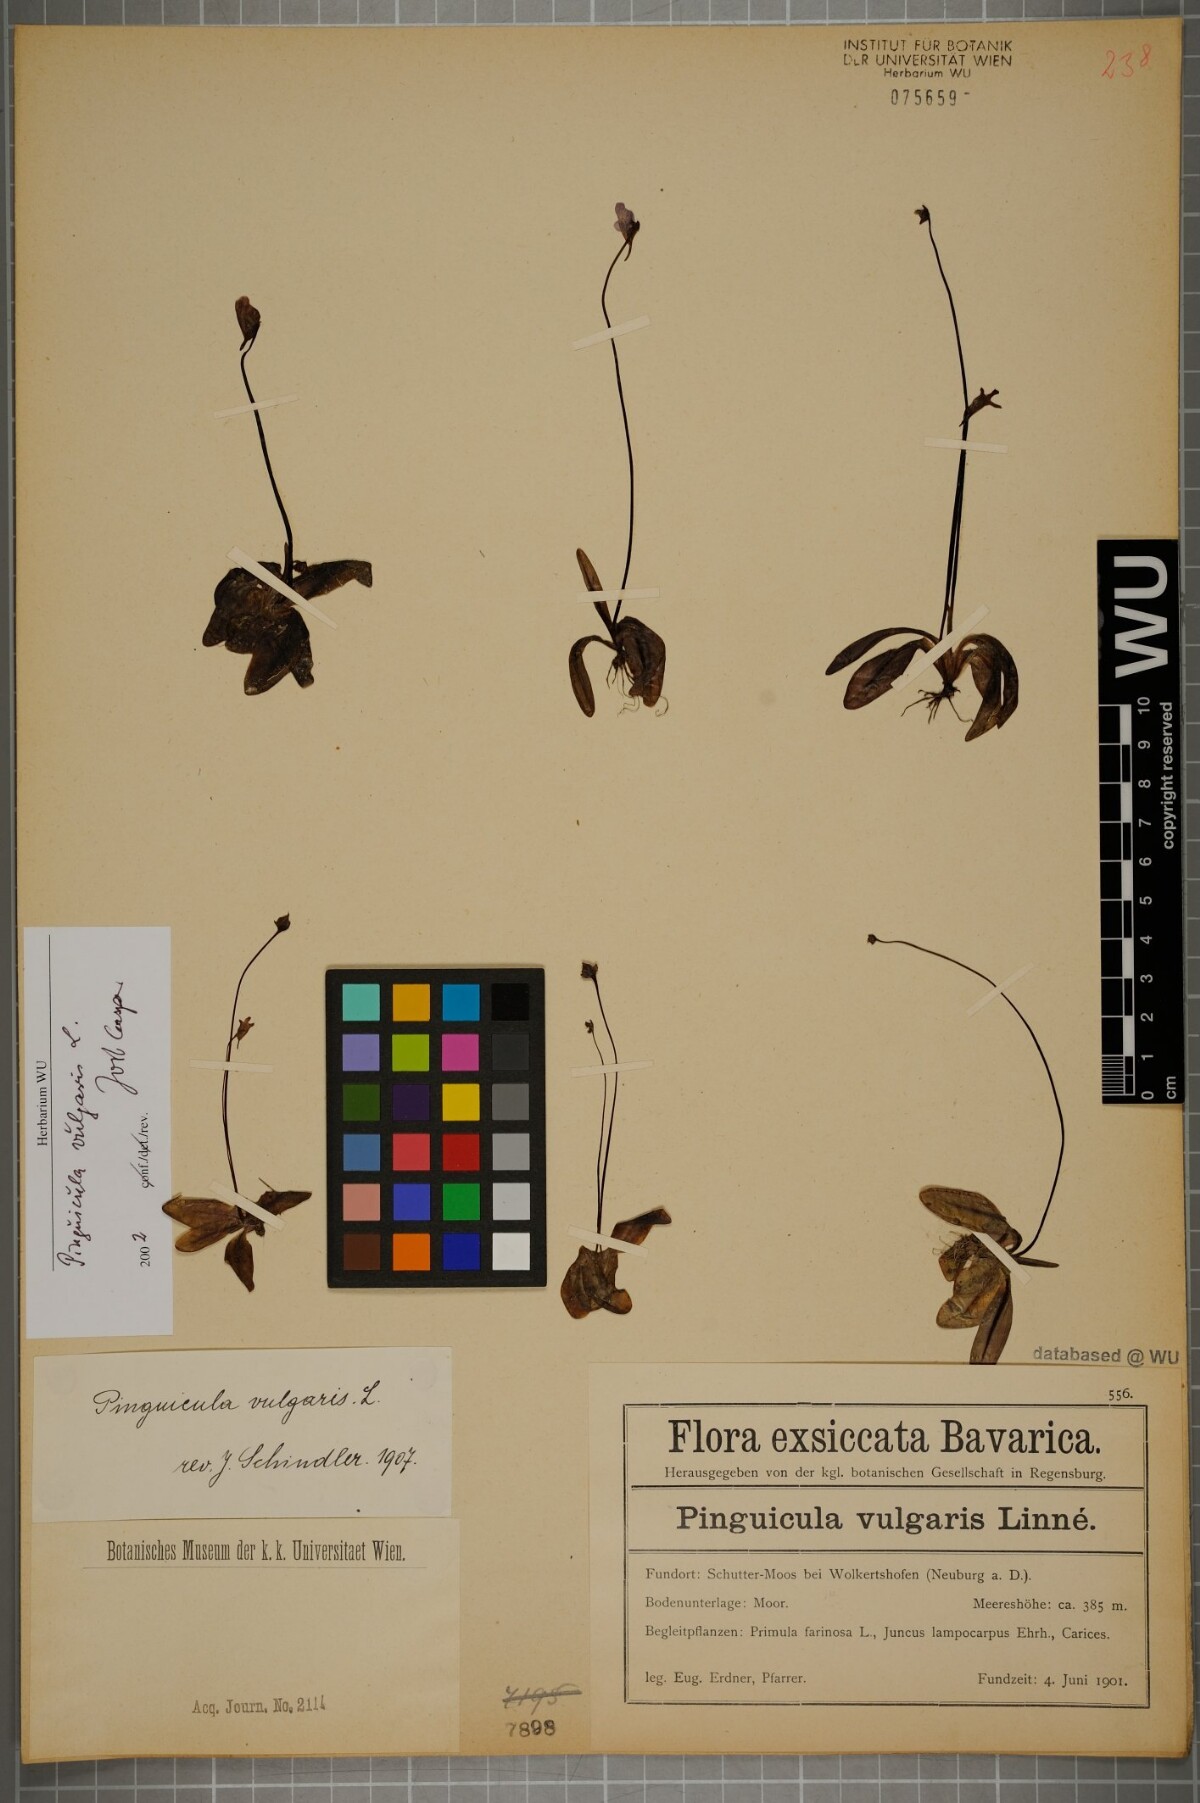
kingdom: Plantae
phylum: Tracheophyta
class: Magnoliopsida
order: Lamiales
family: Lentibulariaceae
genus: Pinguicula
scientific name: Pinguicula vulgaris
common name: Common butterwort
